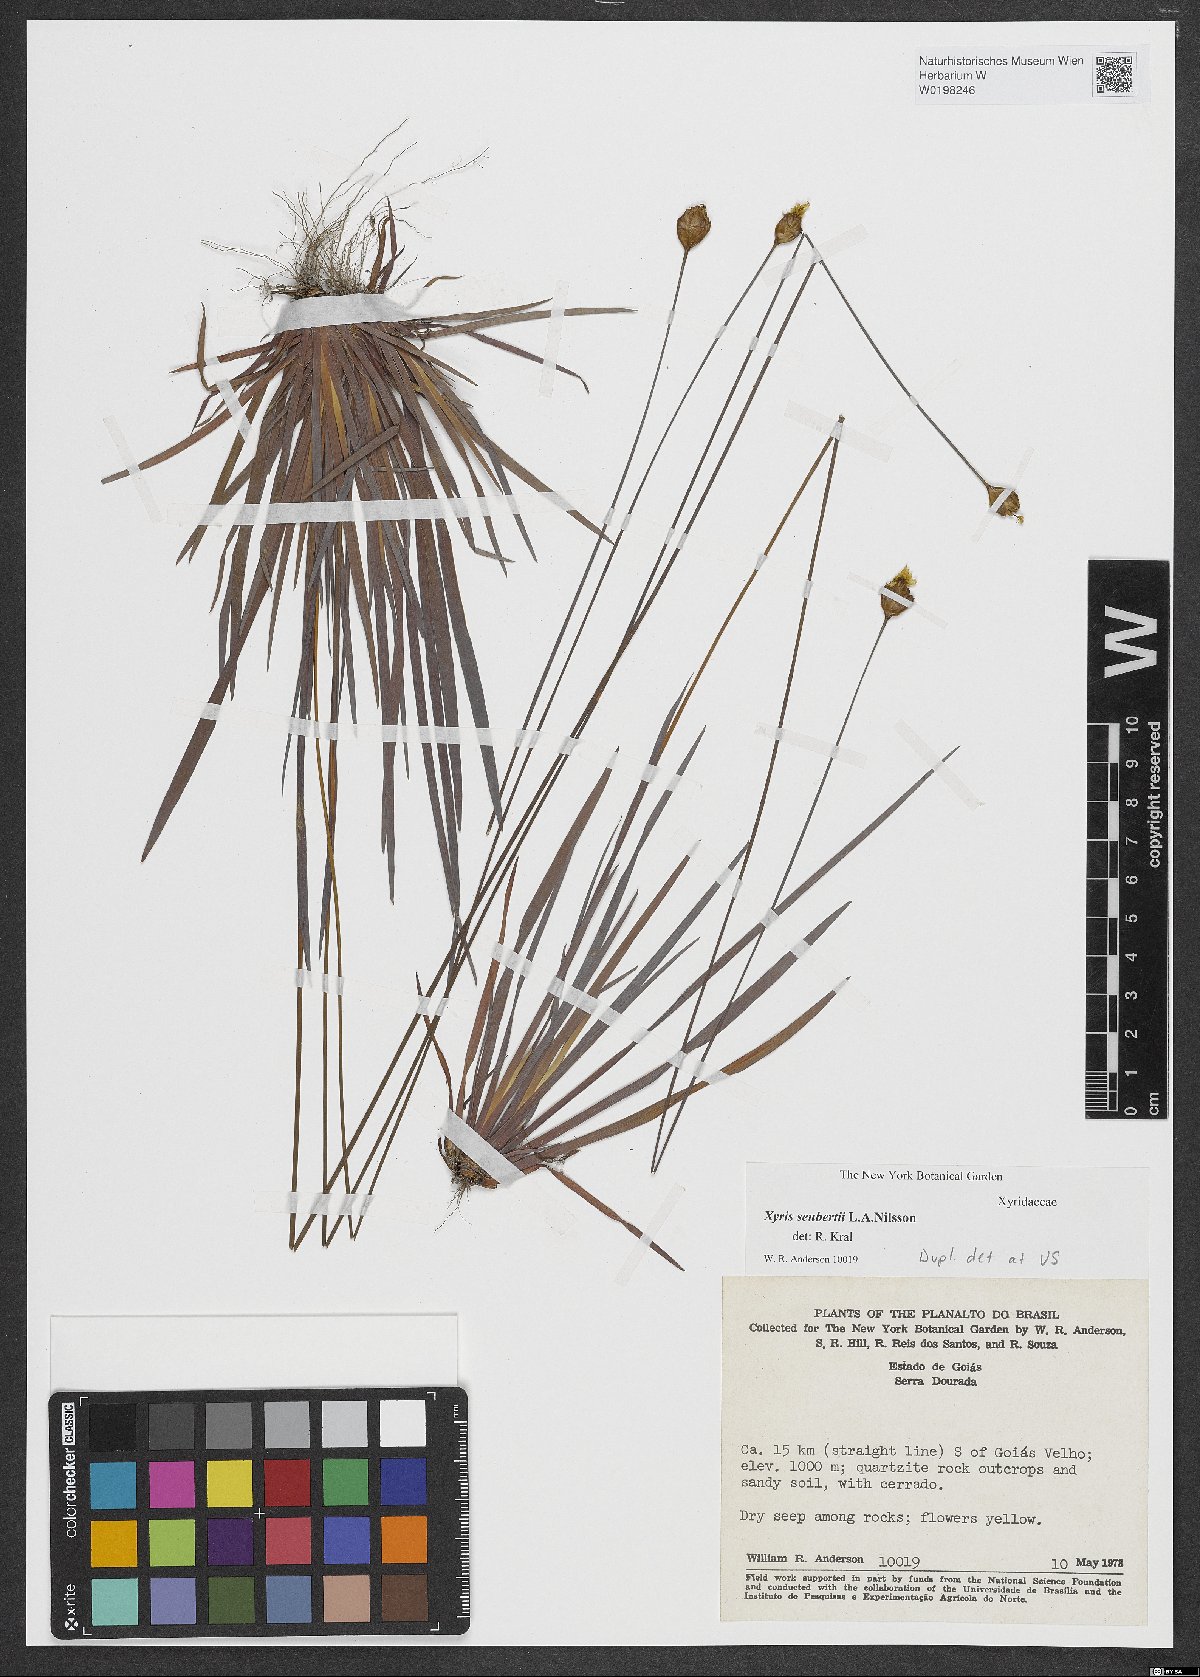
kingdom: Plantae
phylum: Tracheophyta
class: Liliopsida
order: Poales
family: Xyridaceae
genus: Xyris
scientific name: Xyris seubertii
